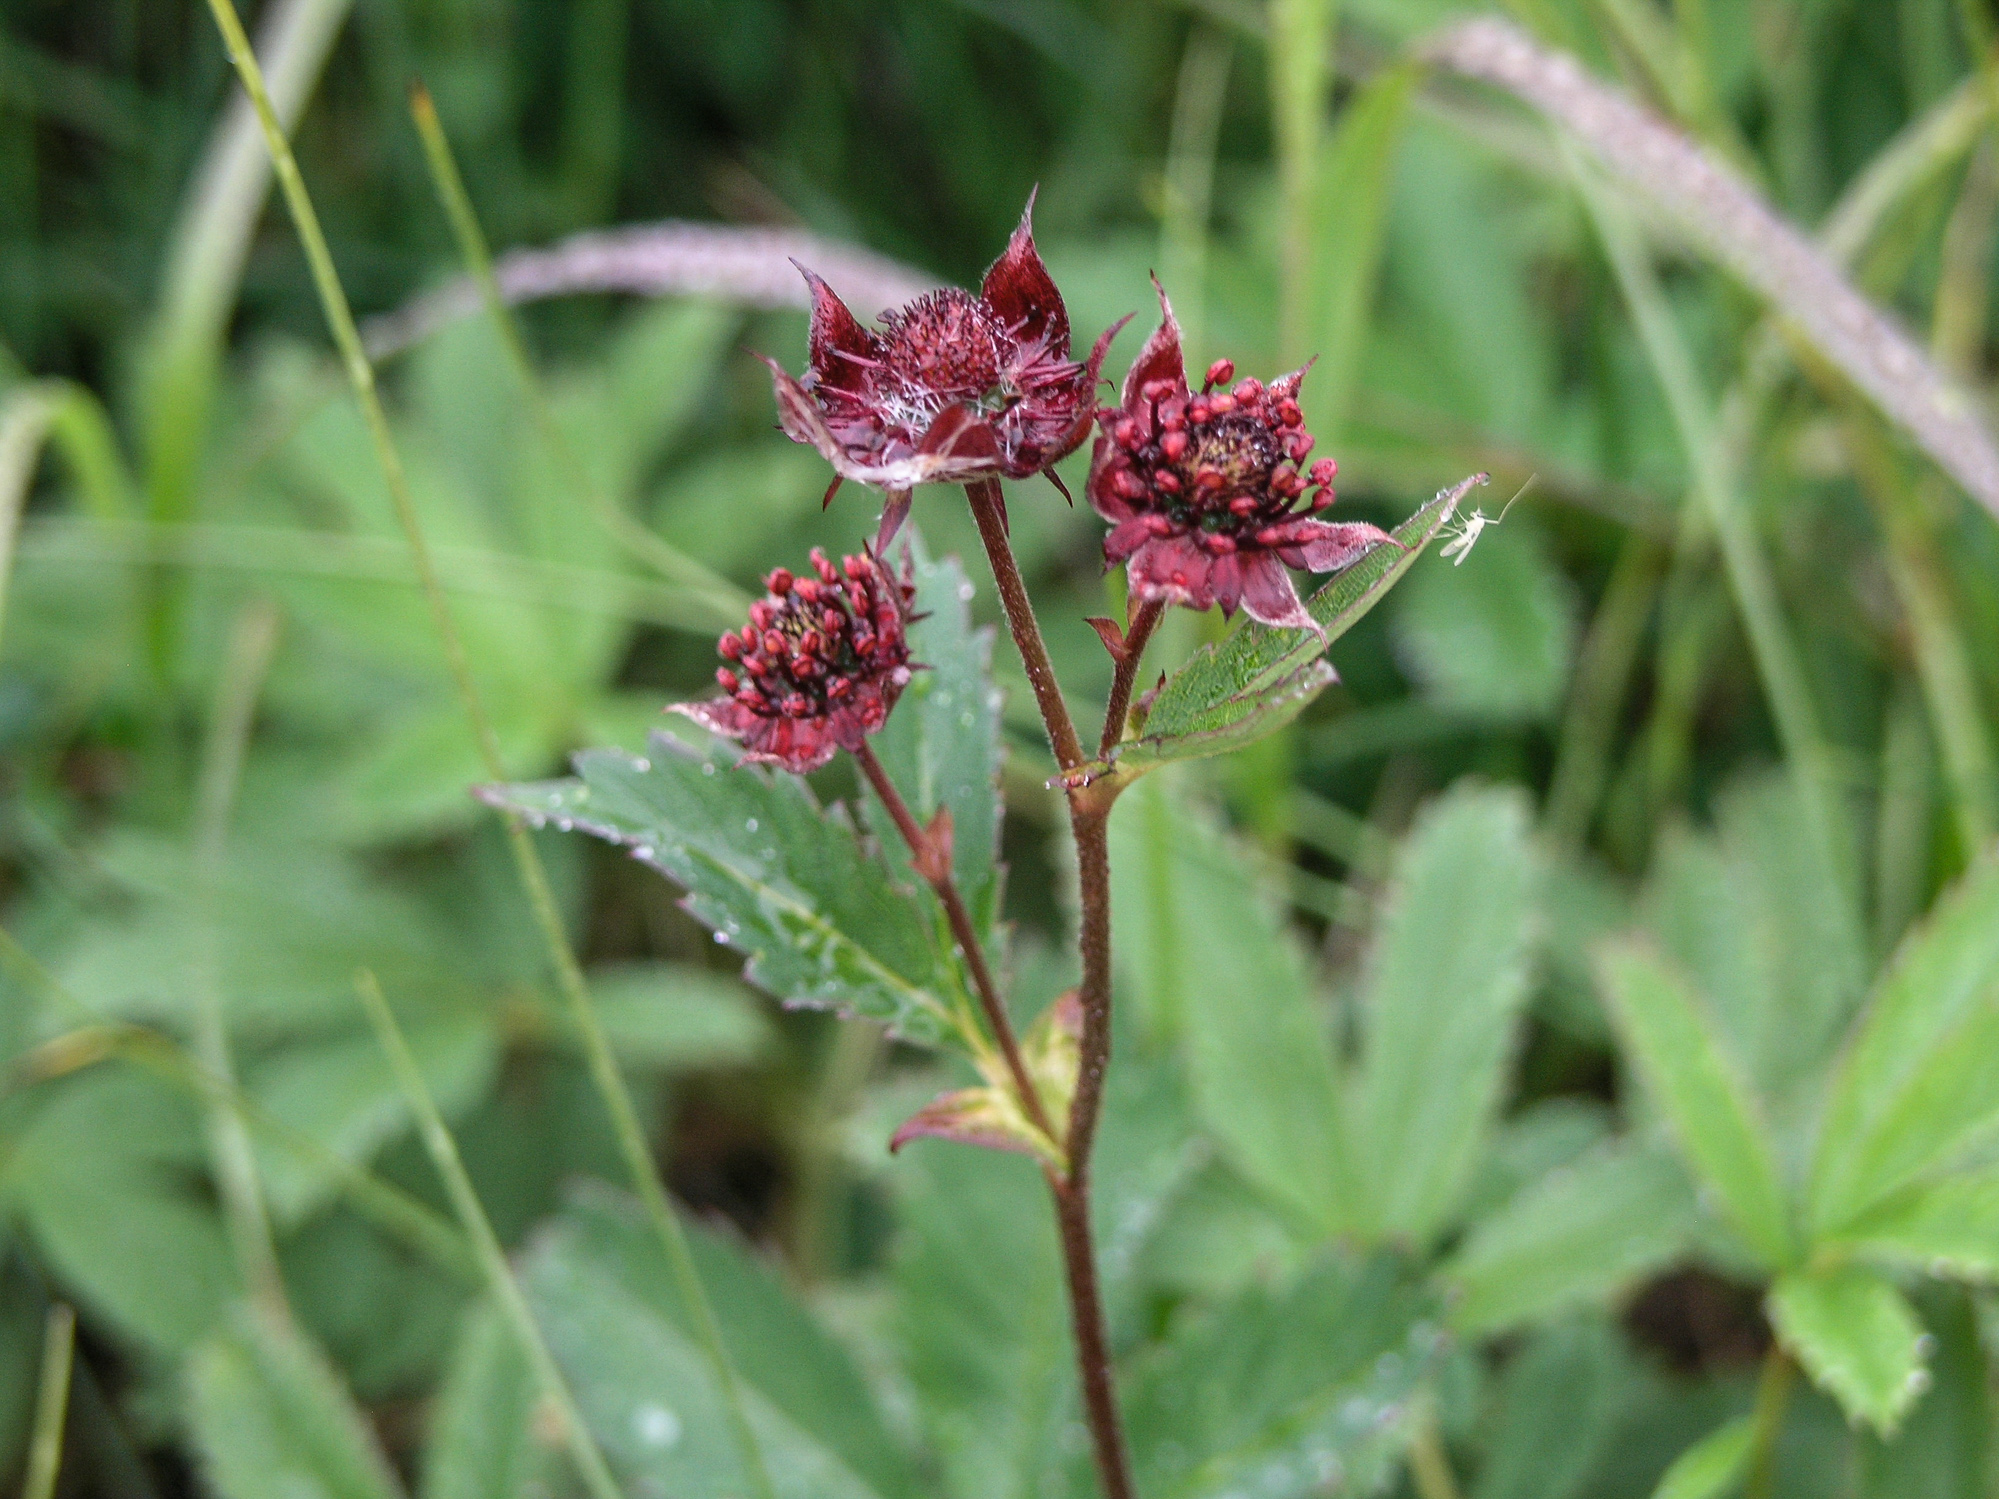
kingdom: Plantae
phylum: Tracheophyta
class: Magnoliopsida
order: Rosales
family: Rosaceae
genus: Comarum
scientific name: Comarum palustre
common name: Marsh cinquefoil
